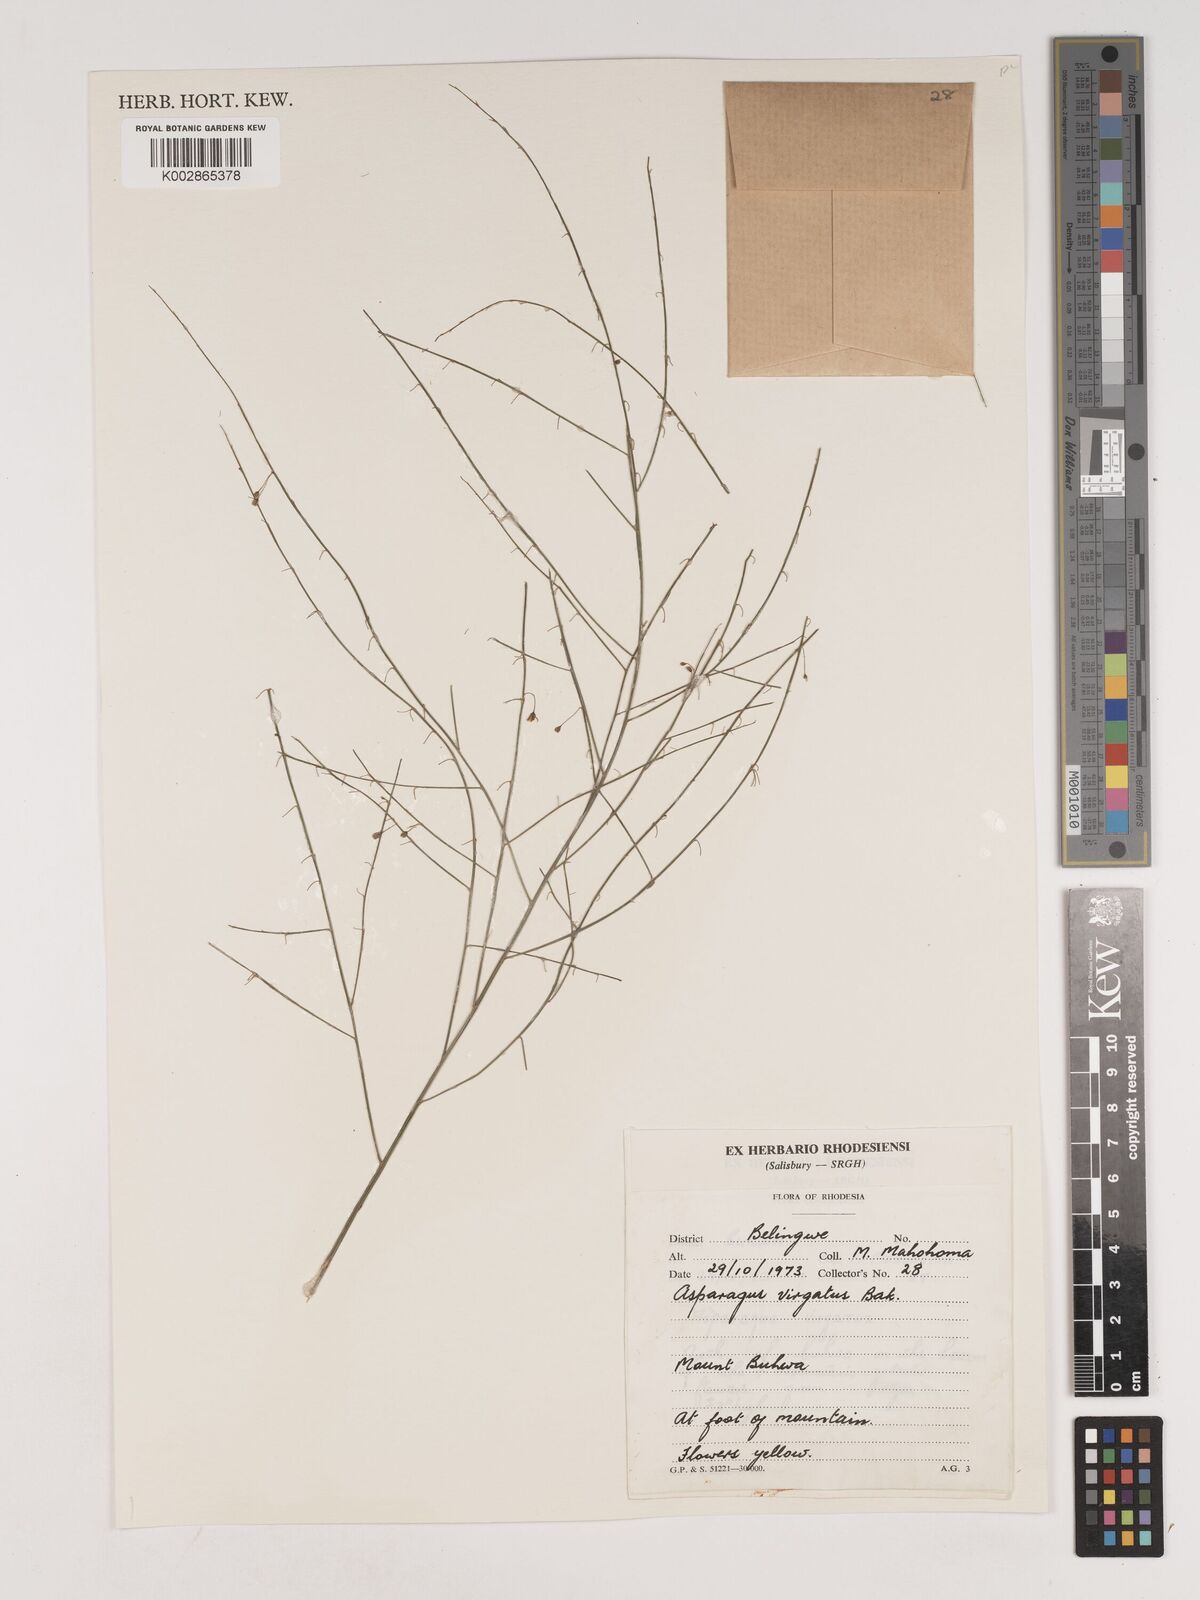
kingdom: Plantae
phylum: Tracheophyta
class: Liliopsida
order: Asparagales
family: Asparagaceae
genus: Asparagus
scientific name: Asparagus virgatus
